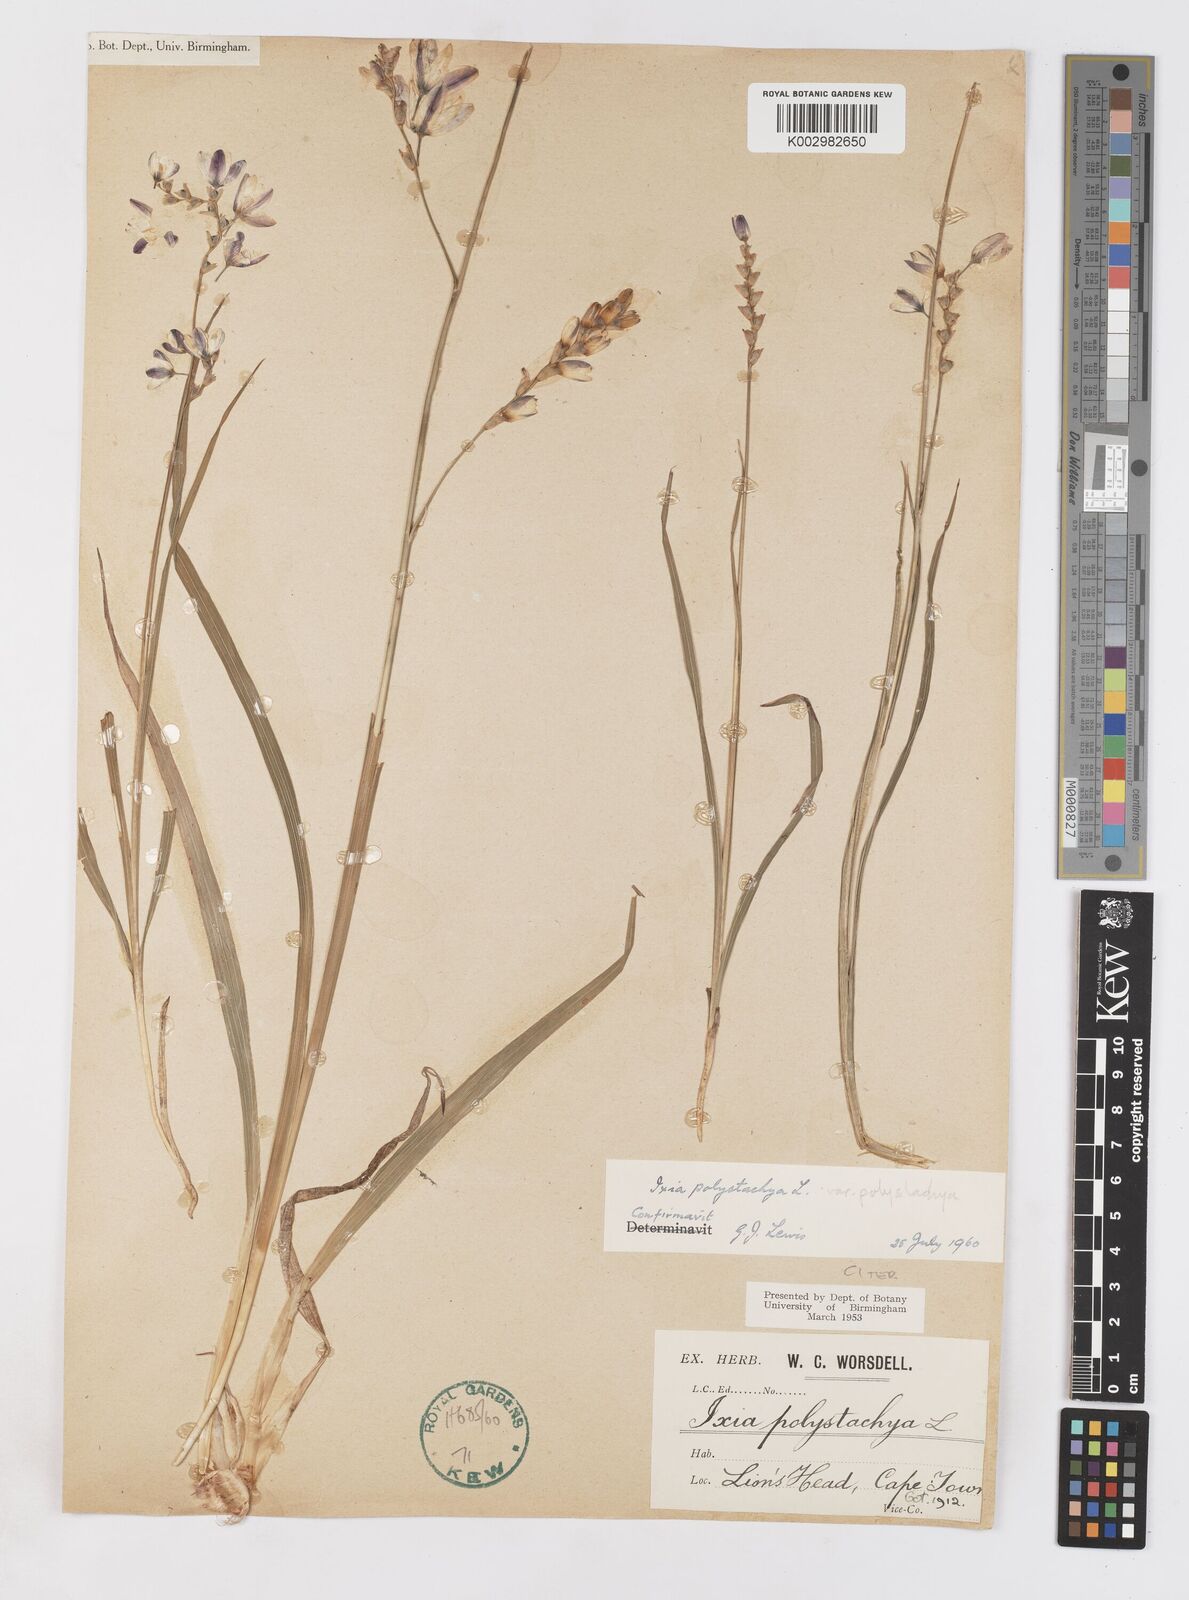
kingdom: Plantae
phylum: Tracheophyta
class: Liliopsida
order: Asparagales
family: Iridaceae
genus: Ixia
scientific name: Ixia polystachya
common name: White-and-yellow-flower cornlily
